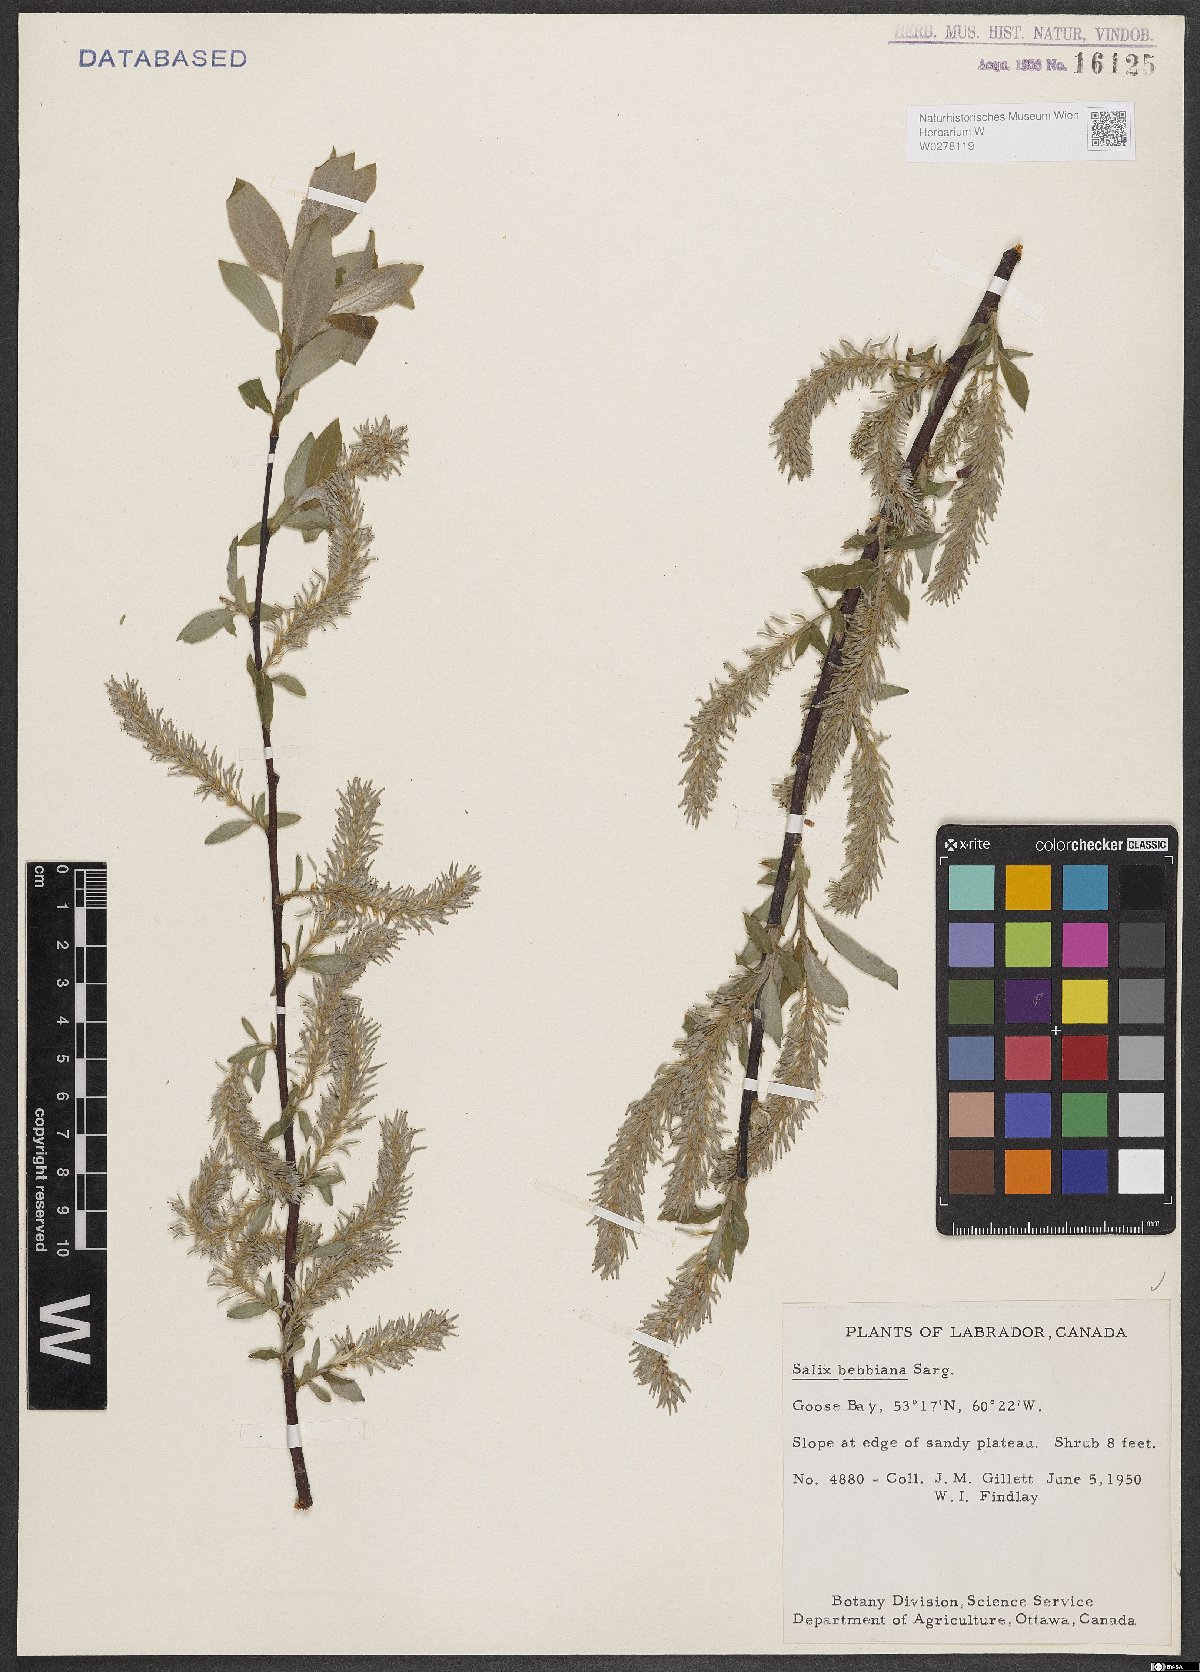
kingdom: Plantae
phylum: Tracheophyta
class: Magnoliopsida
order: Malpighiales
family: Salicaceae
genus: Salix
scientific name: Salix bebbiana
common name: Bebb's willow
